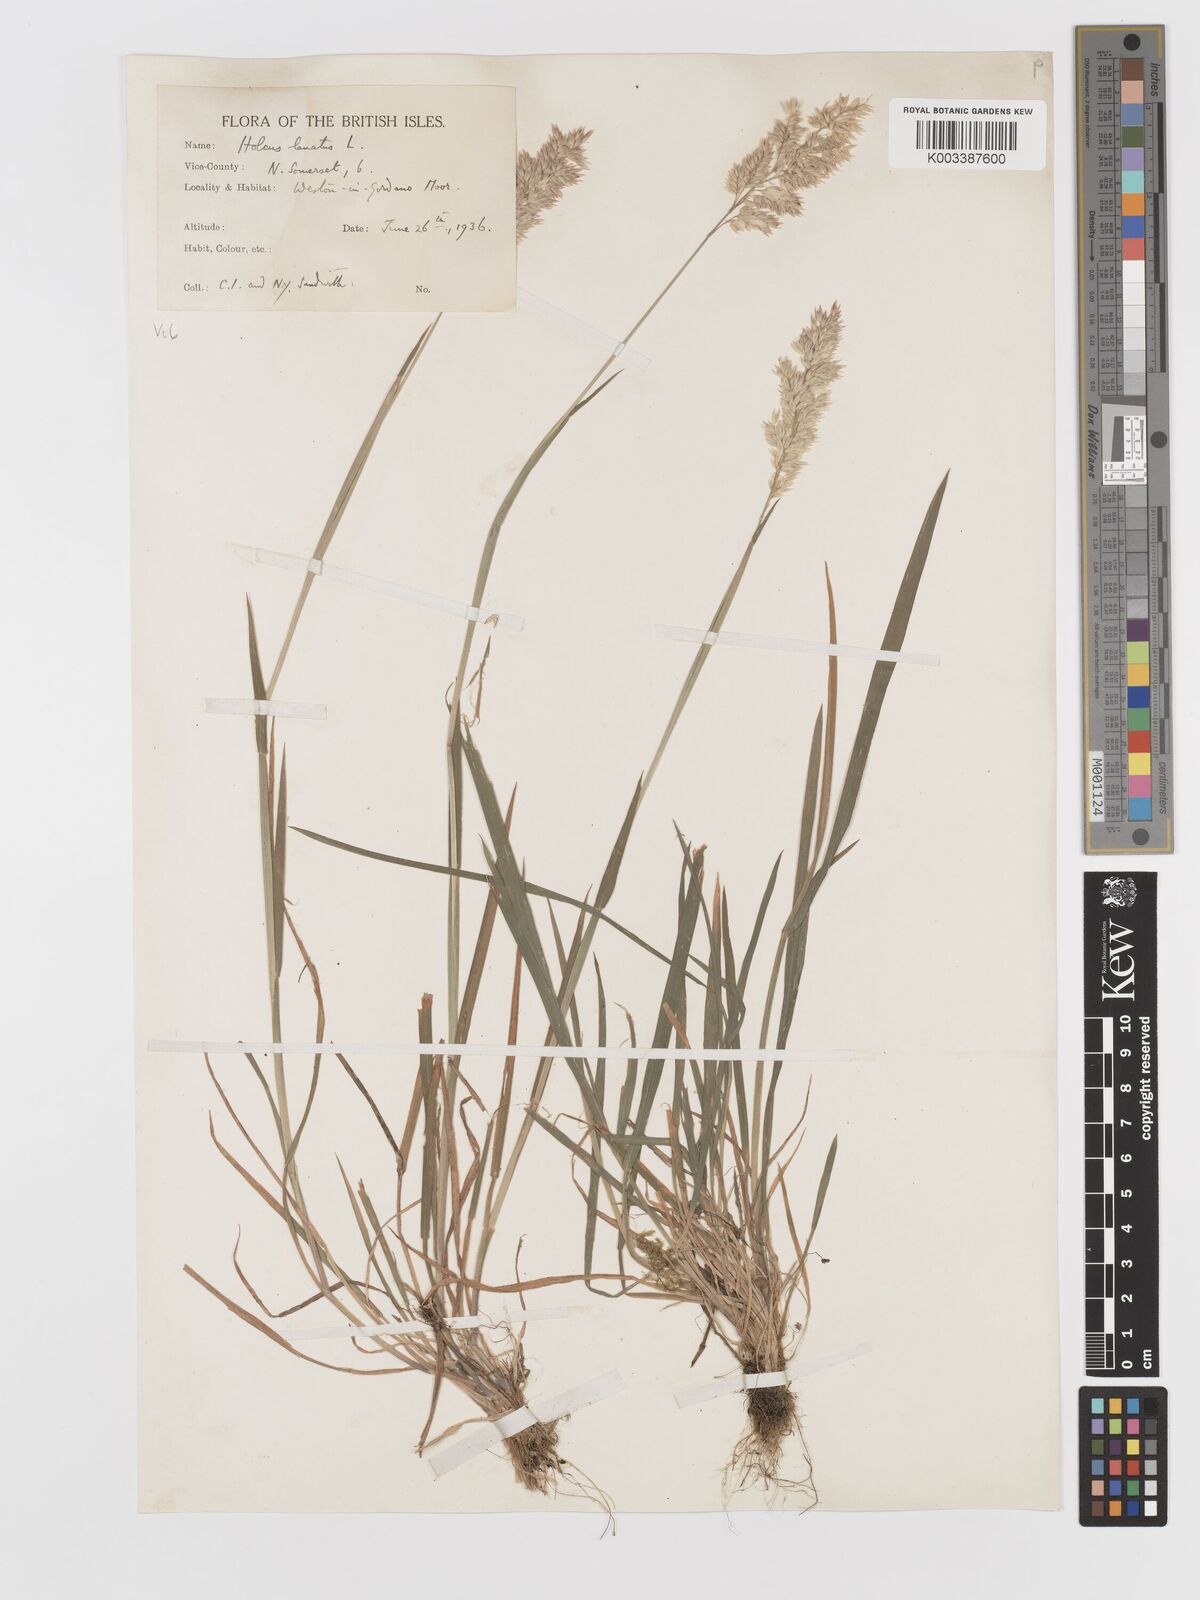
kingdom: Plantae
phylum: Tracheophyta
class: Liliopsida
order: Poales
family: Poaceae
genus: Holcus
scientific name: Holcus lanatus
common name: Yorkshire-fog
